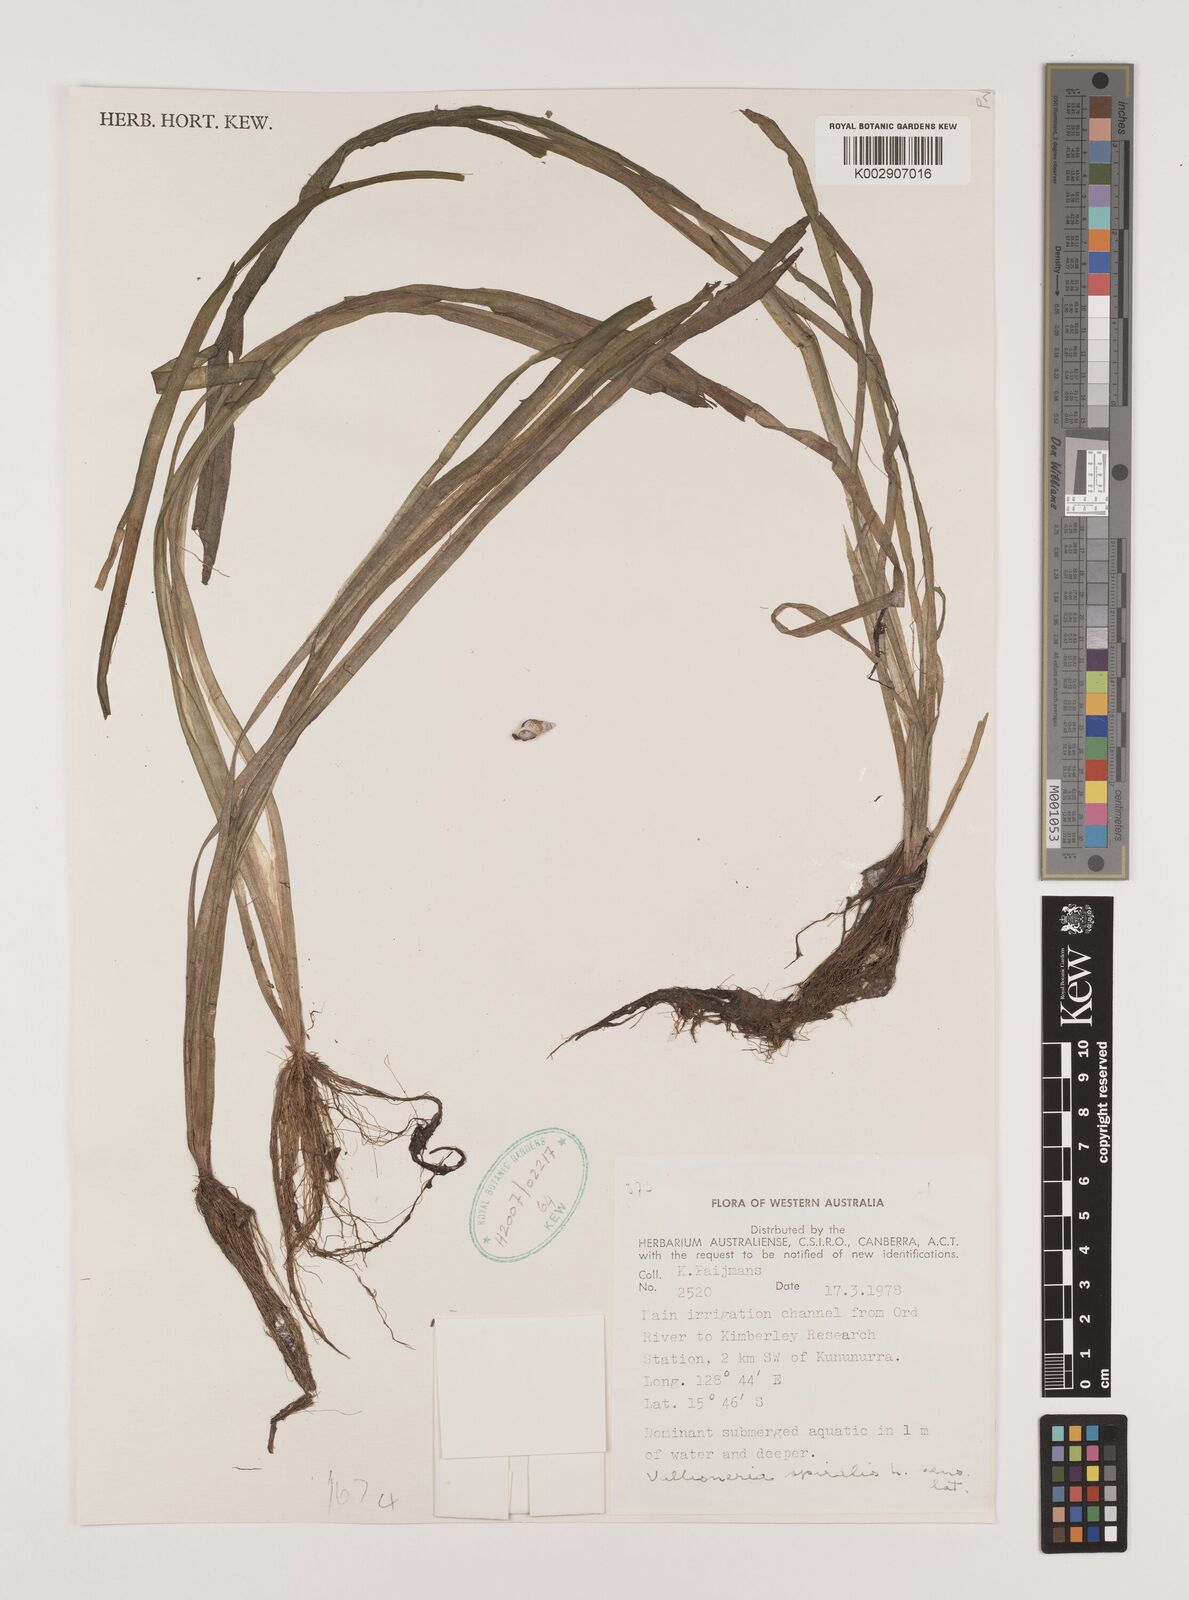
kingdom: Plantae
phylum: Tracheophyta
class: Liliopsida
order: Alismatales
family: Hydrocharitaceae
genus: Vallisneria
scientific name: Vallisneria spiralis
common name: Tapegrass
